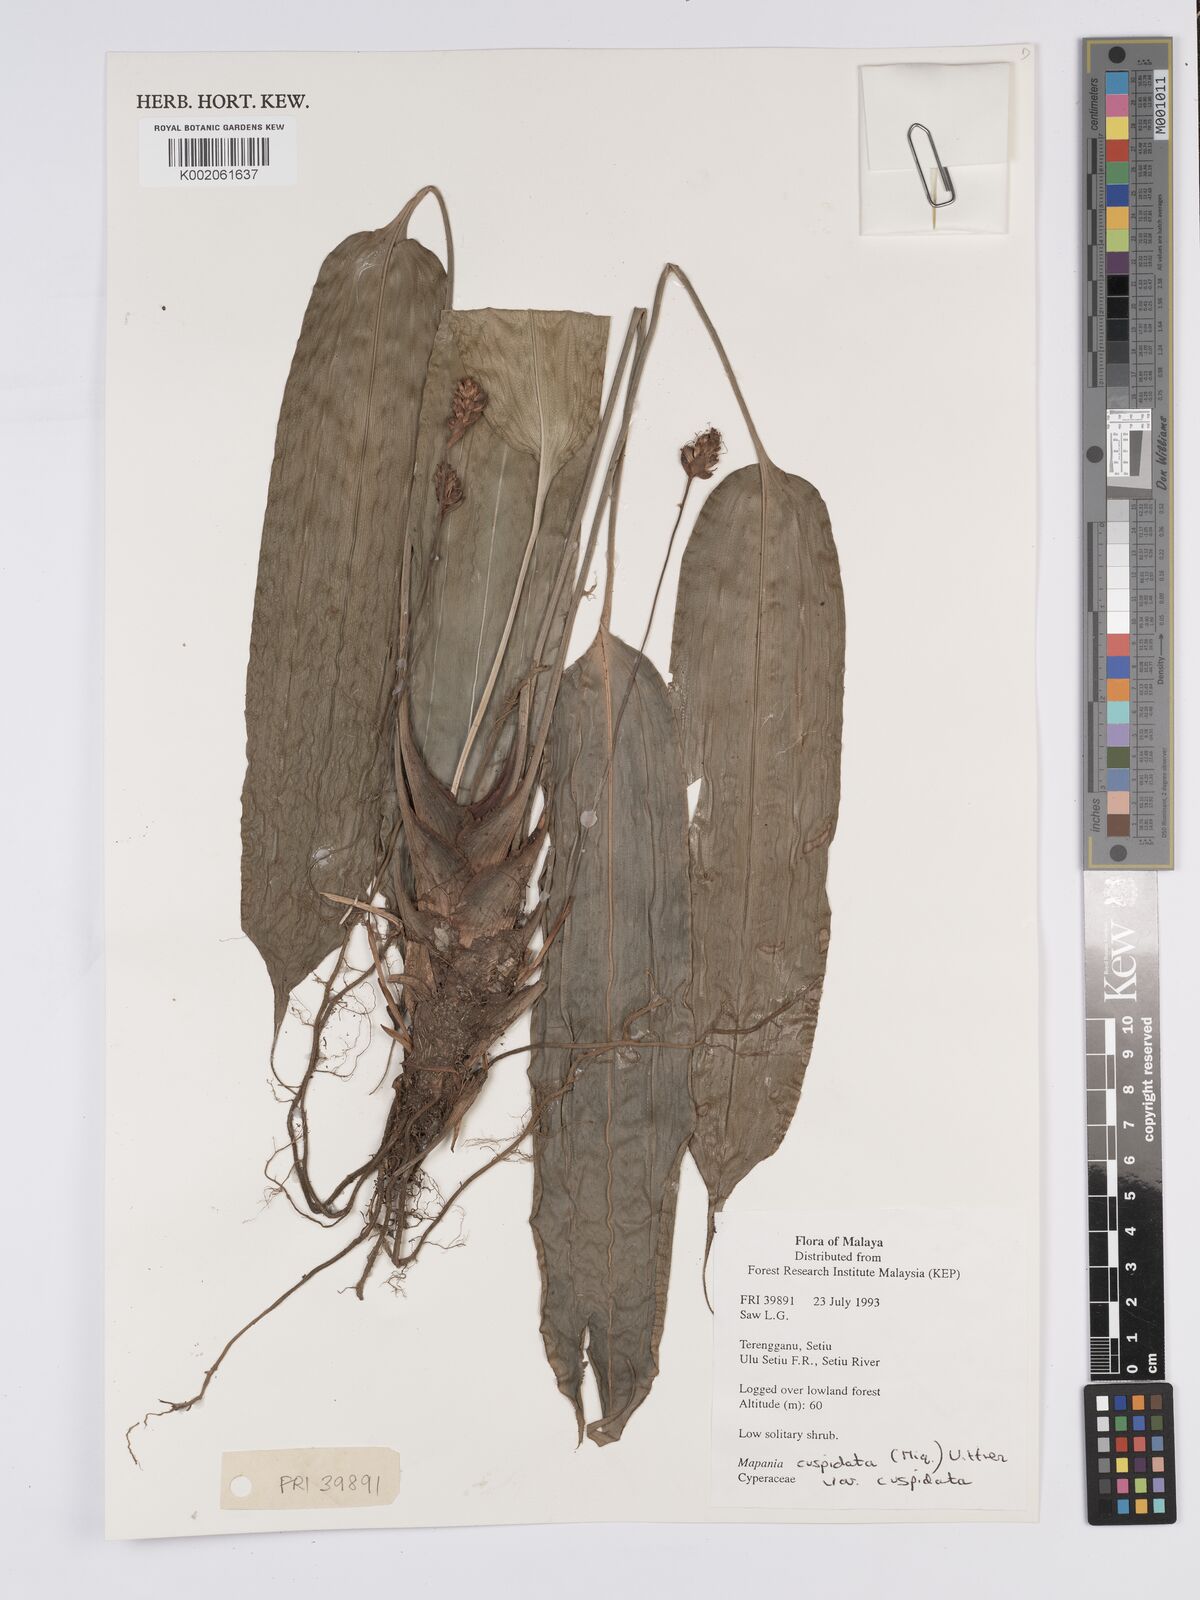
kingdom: Plantae
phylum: Tracheophyta
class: Liliopsida
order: Poales
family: Cyperaceae
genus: Mapania
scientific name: Mapania cuspidata
